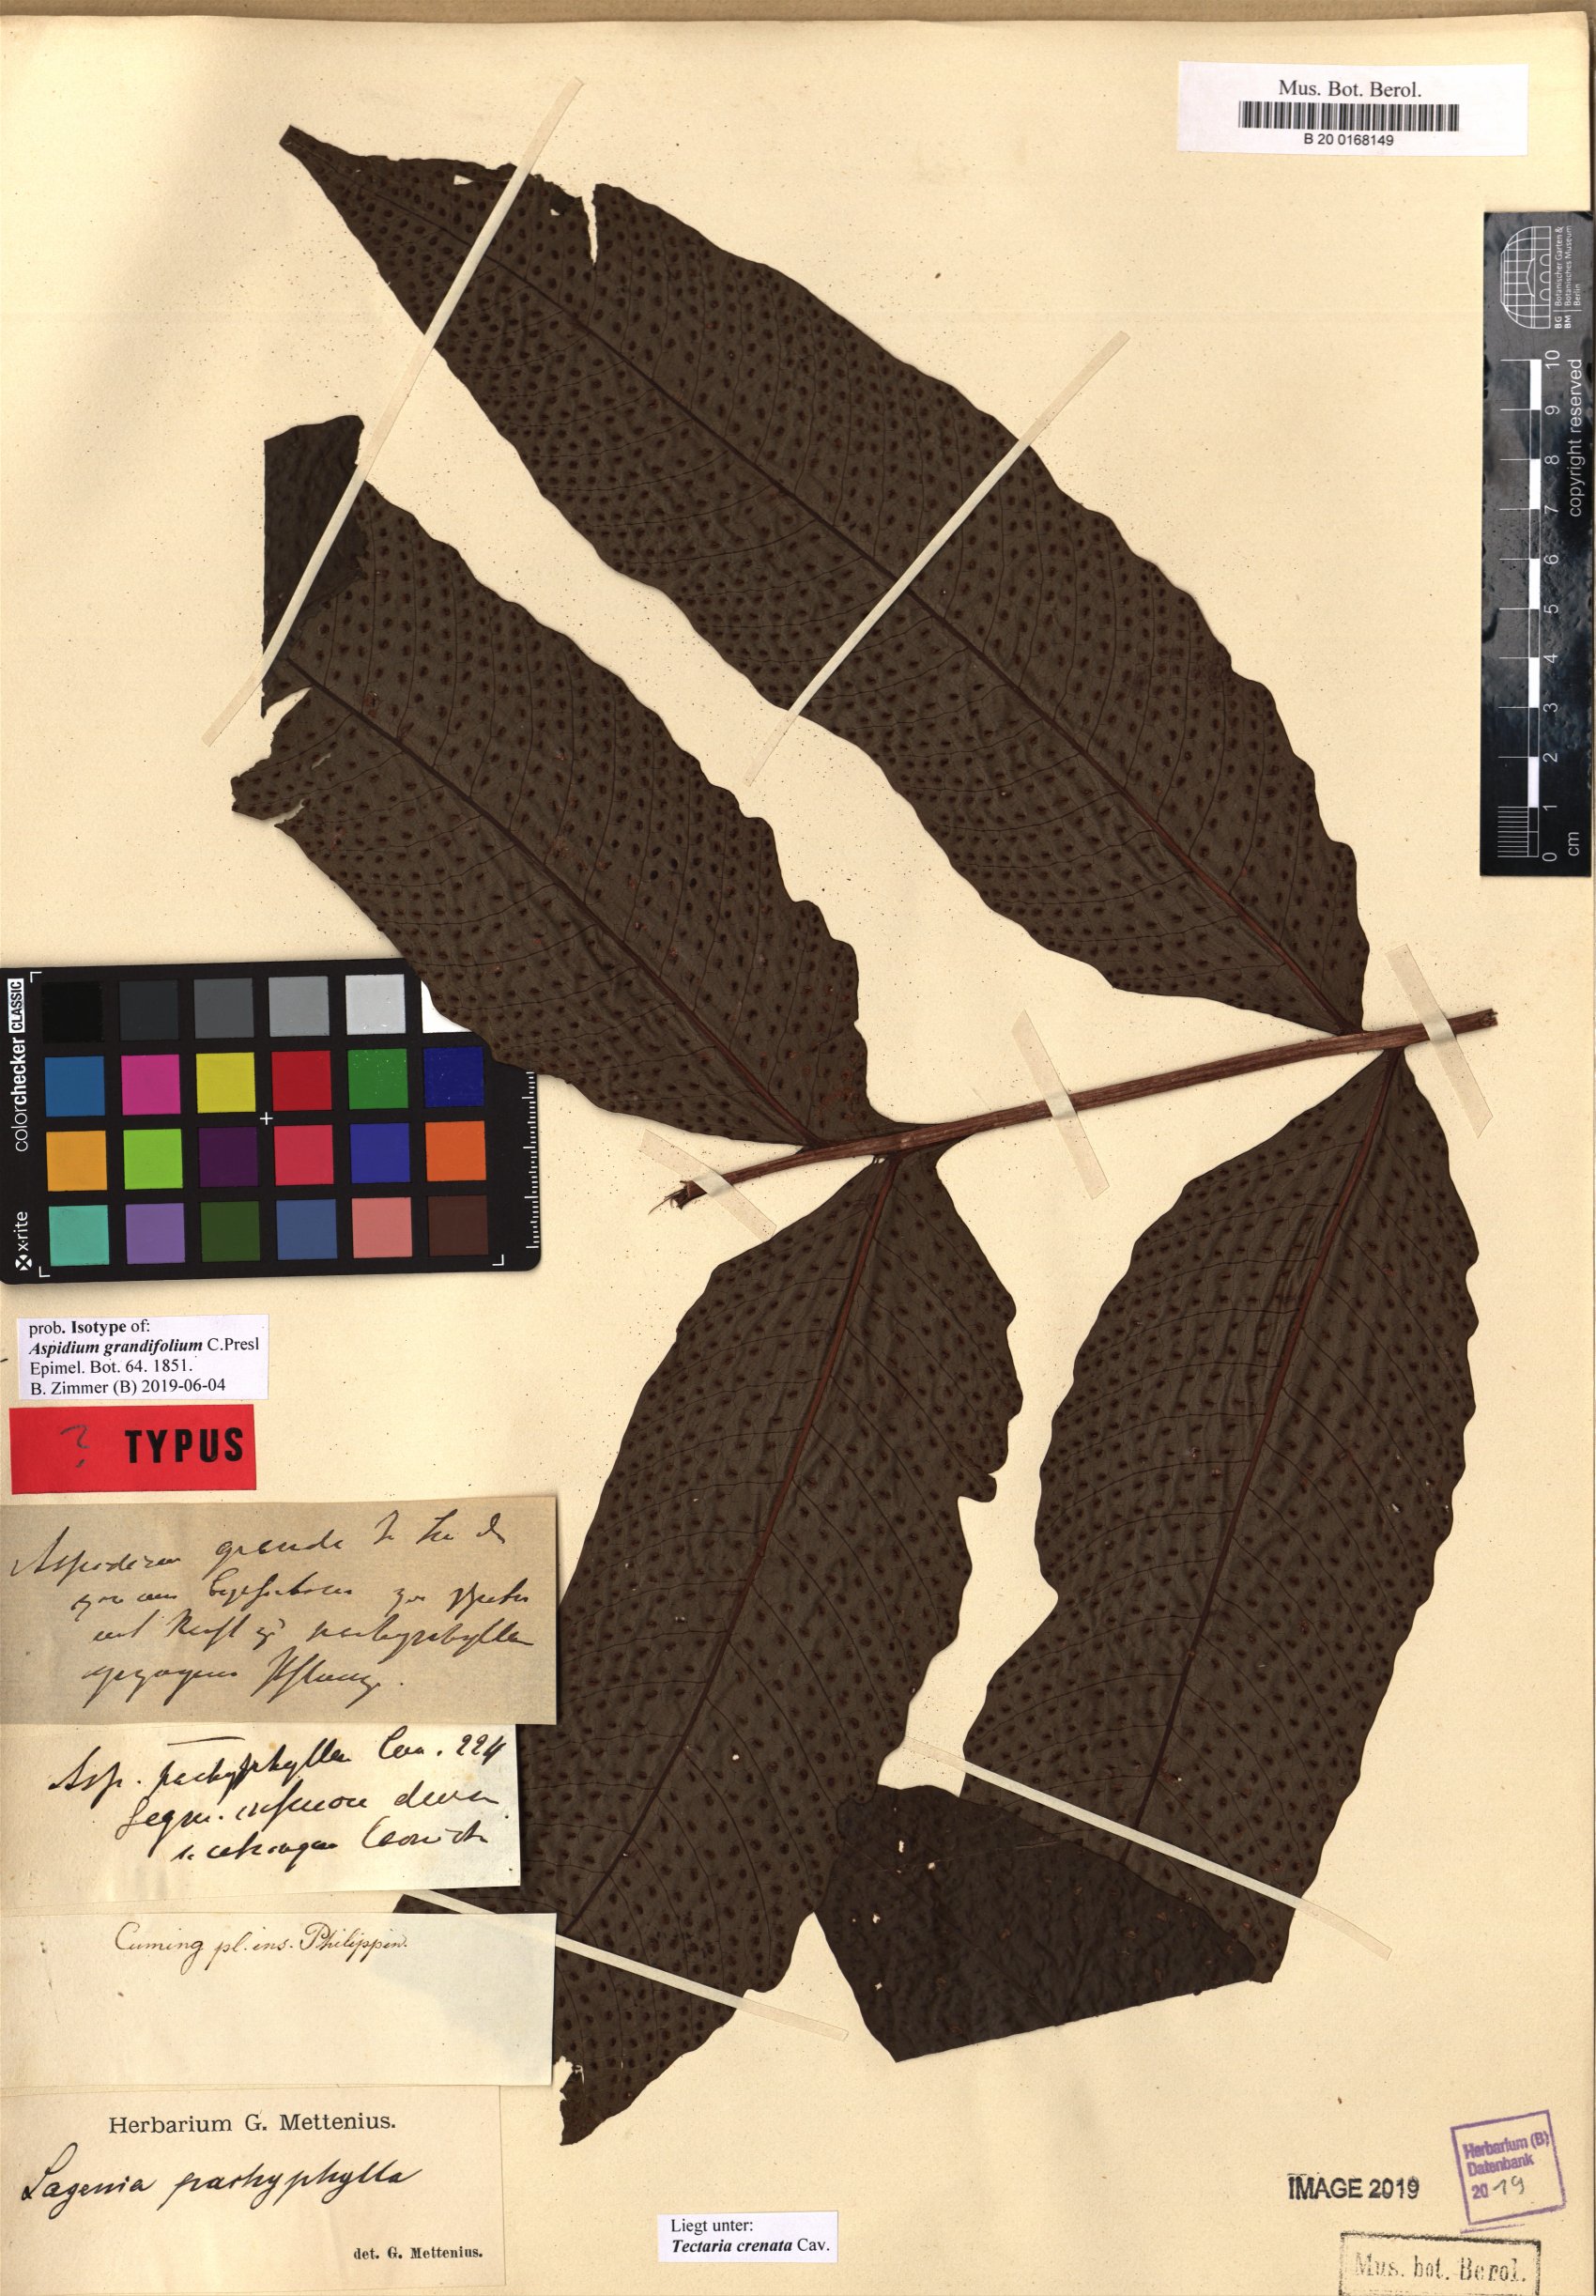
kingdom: Plantae
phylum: Tracheophyta
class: Polypodiopsida
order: Polypodiales
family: Tectariaceae
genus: Tectaria
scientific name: Tectaria crenata
